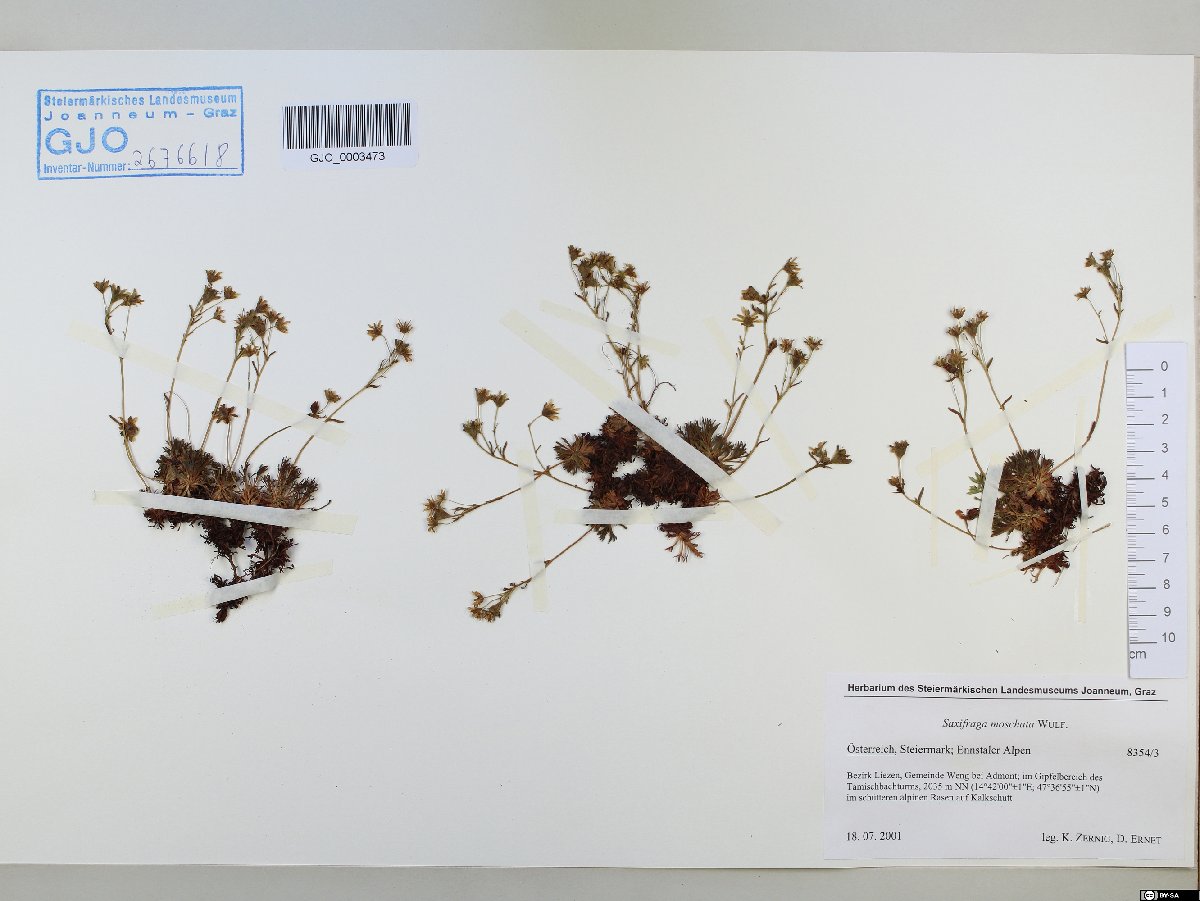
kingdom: Plantae
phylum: Tracheophyta
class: Magnoliopsida
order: Saxifragales
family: Saxifragaceae
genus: Saxifraga
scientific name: Saxifraga moschata
